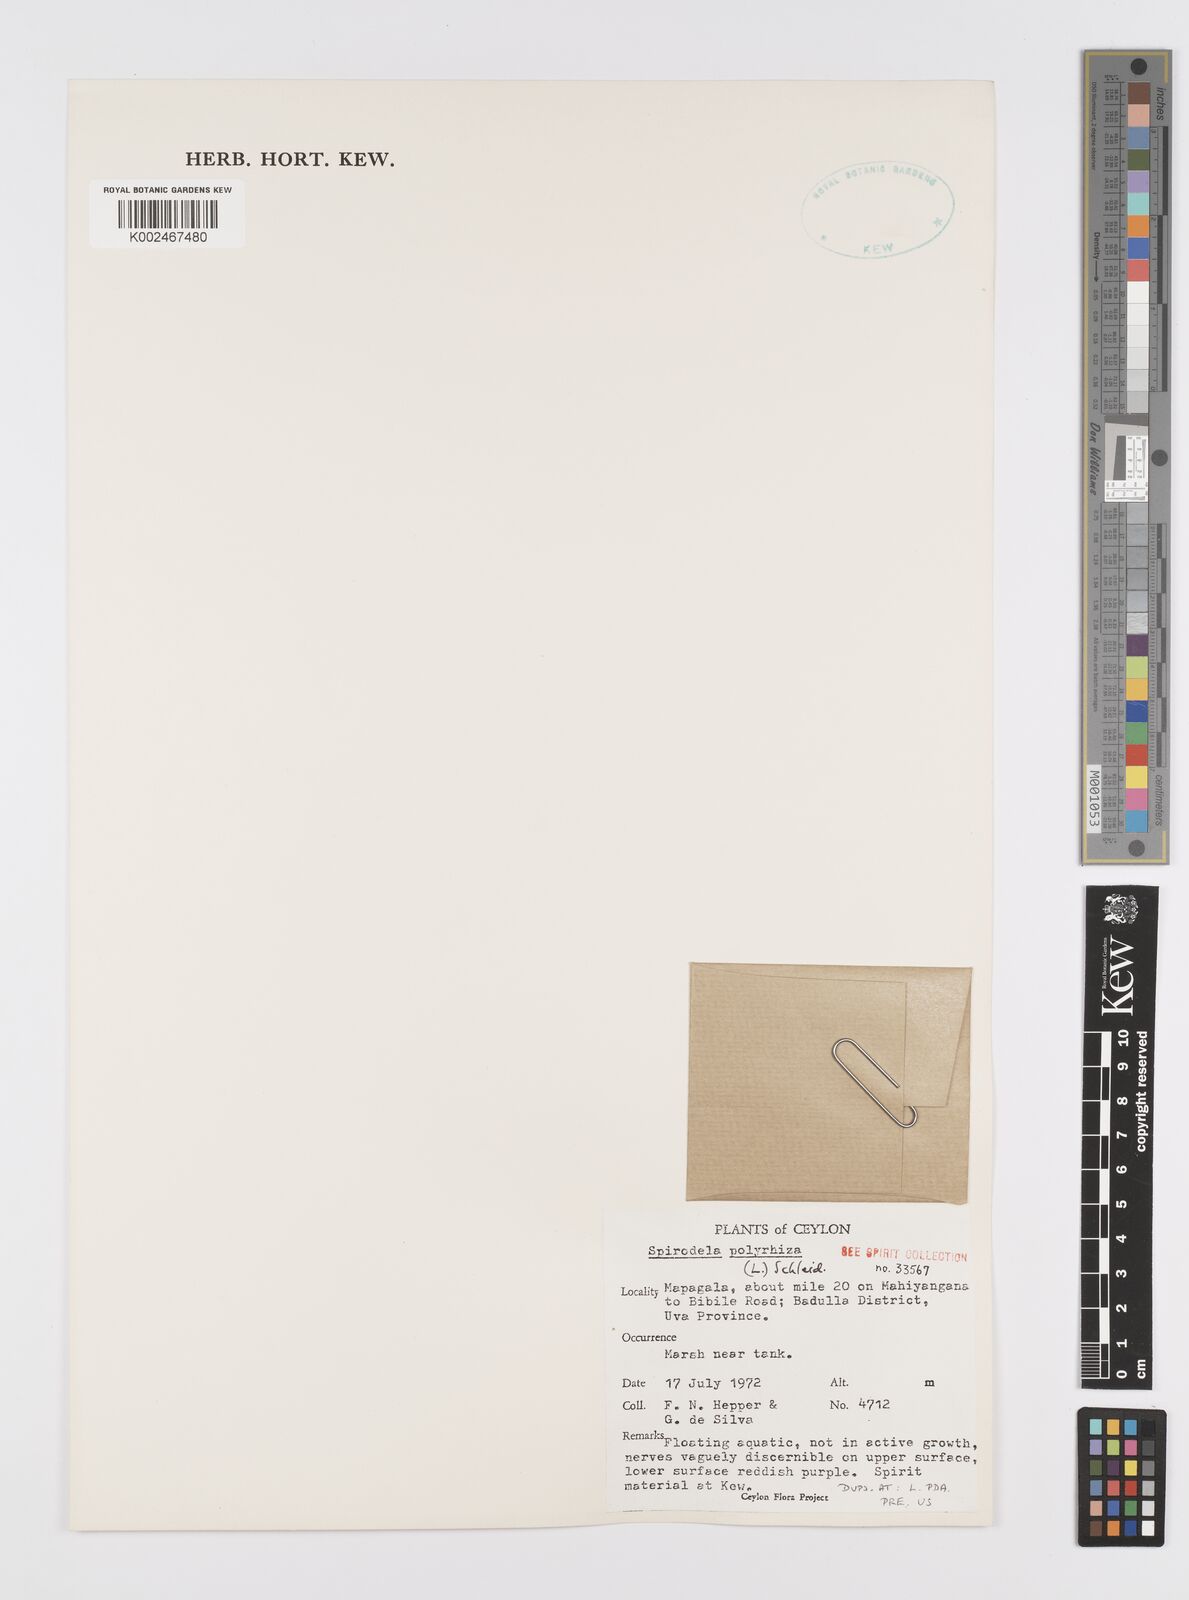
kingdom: Plantae
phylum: Tracheophyta
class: Liliopsida
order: Alismatales
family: Araceae
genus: Spirodela
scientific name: Spirodela polyrhiza
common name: Great duckweed
